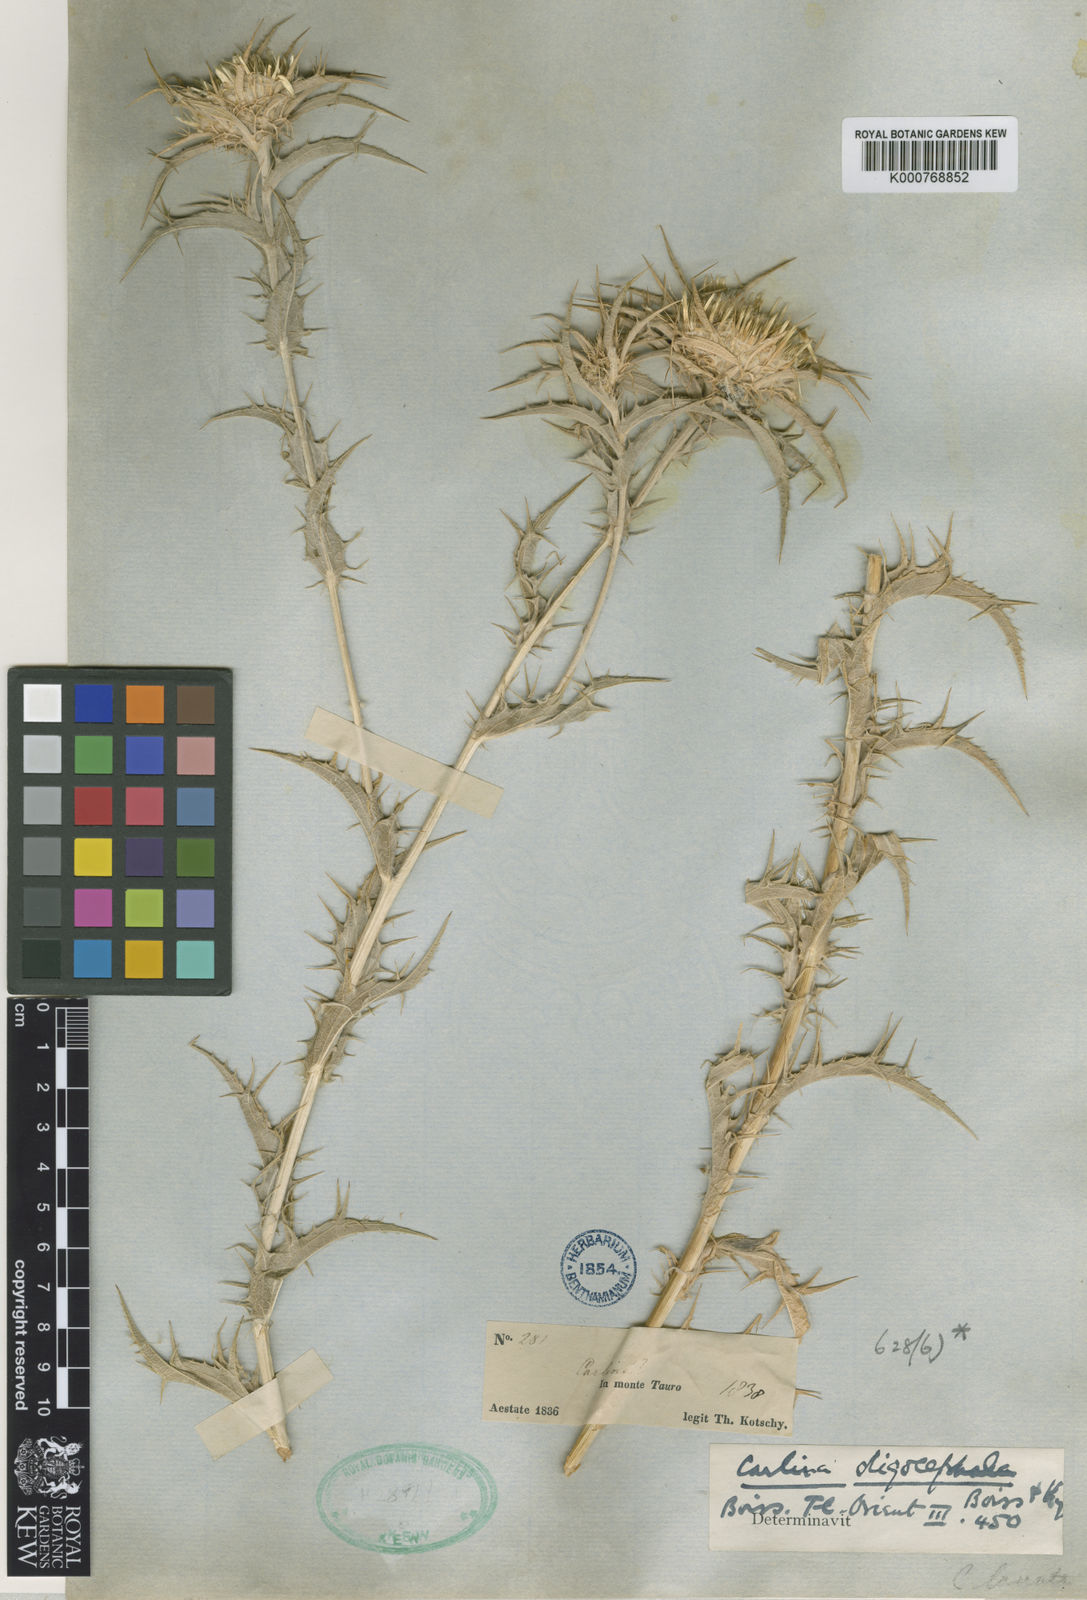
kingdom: Plantae
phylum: Tracheophyta
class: Magnoliopsida
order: Asterales
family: Asteraceae
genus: Carlina
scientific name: Carlina oligocephala
